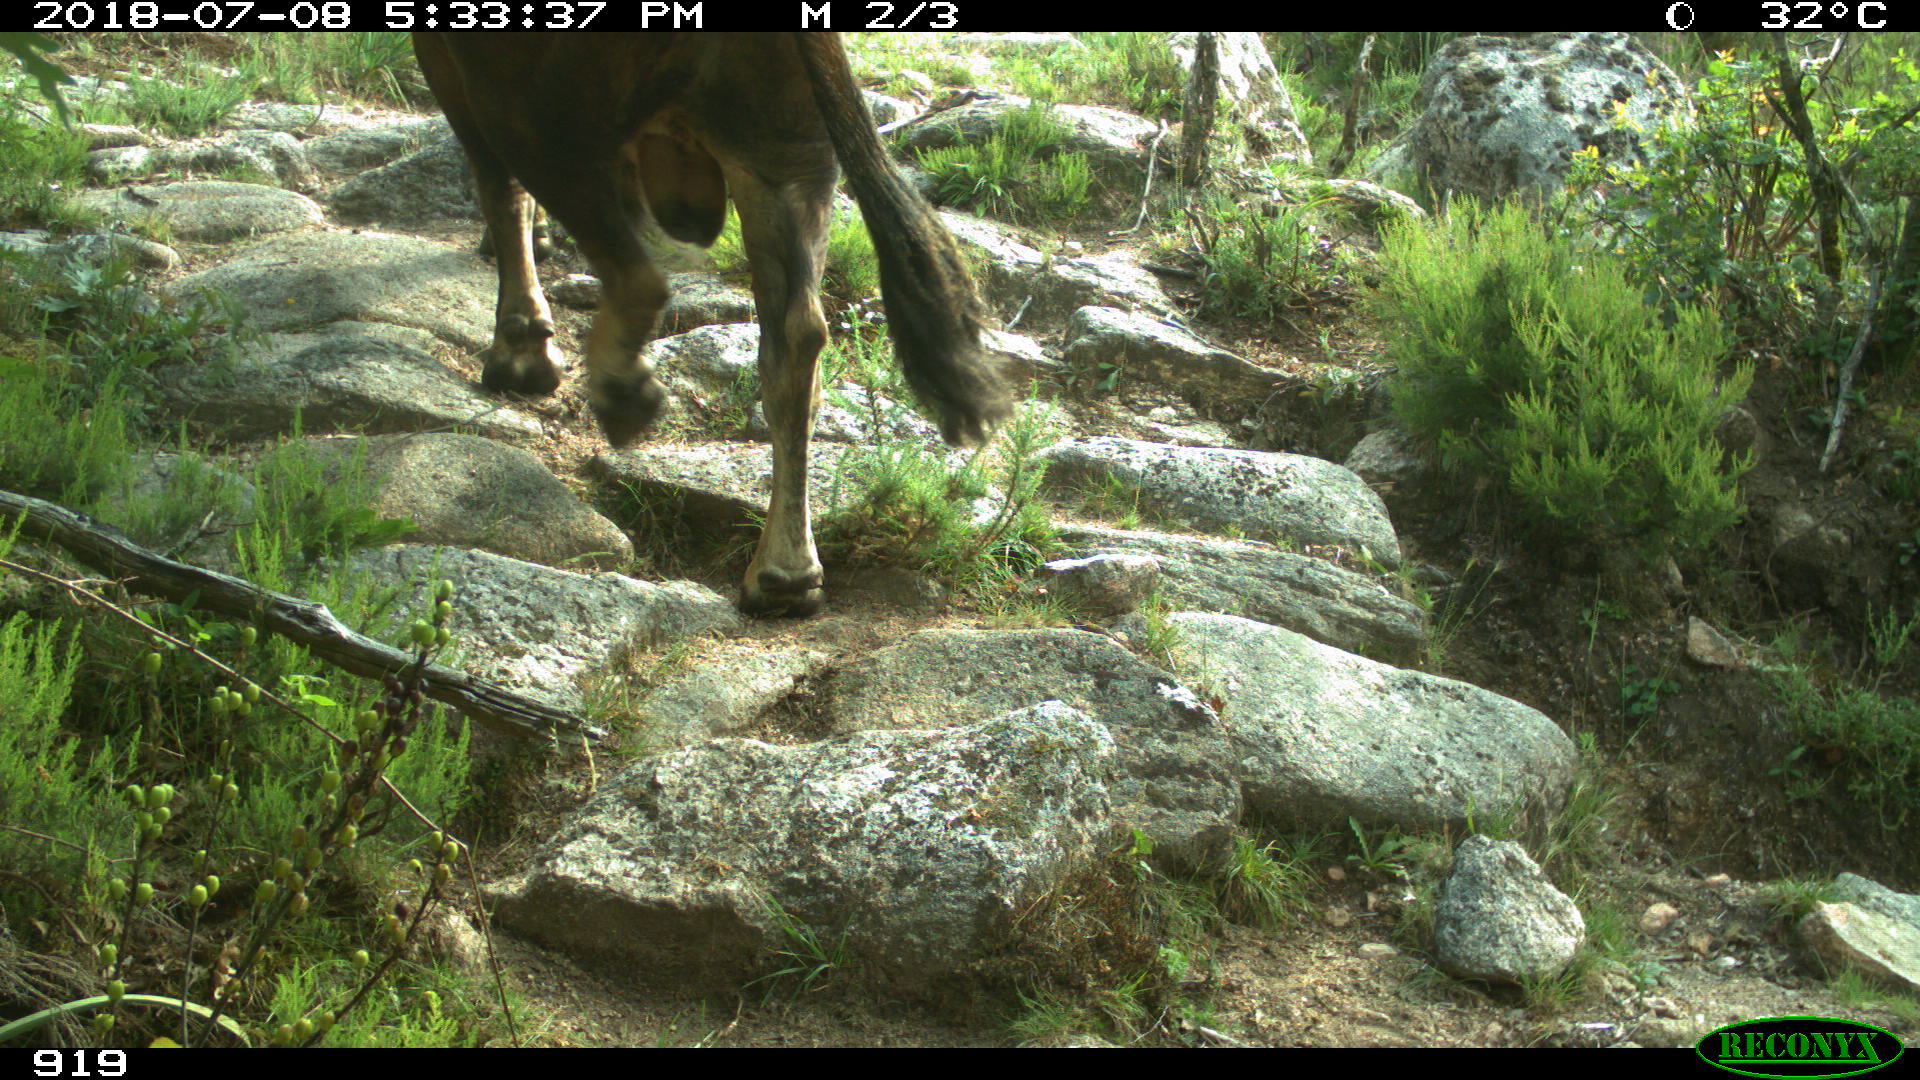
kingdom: Animalia
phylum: Chordata
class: Mammalia
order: Artiodactyla
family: Bovidae
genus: Bos
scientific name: Bos taurus
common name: Domesticated cattle
